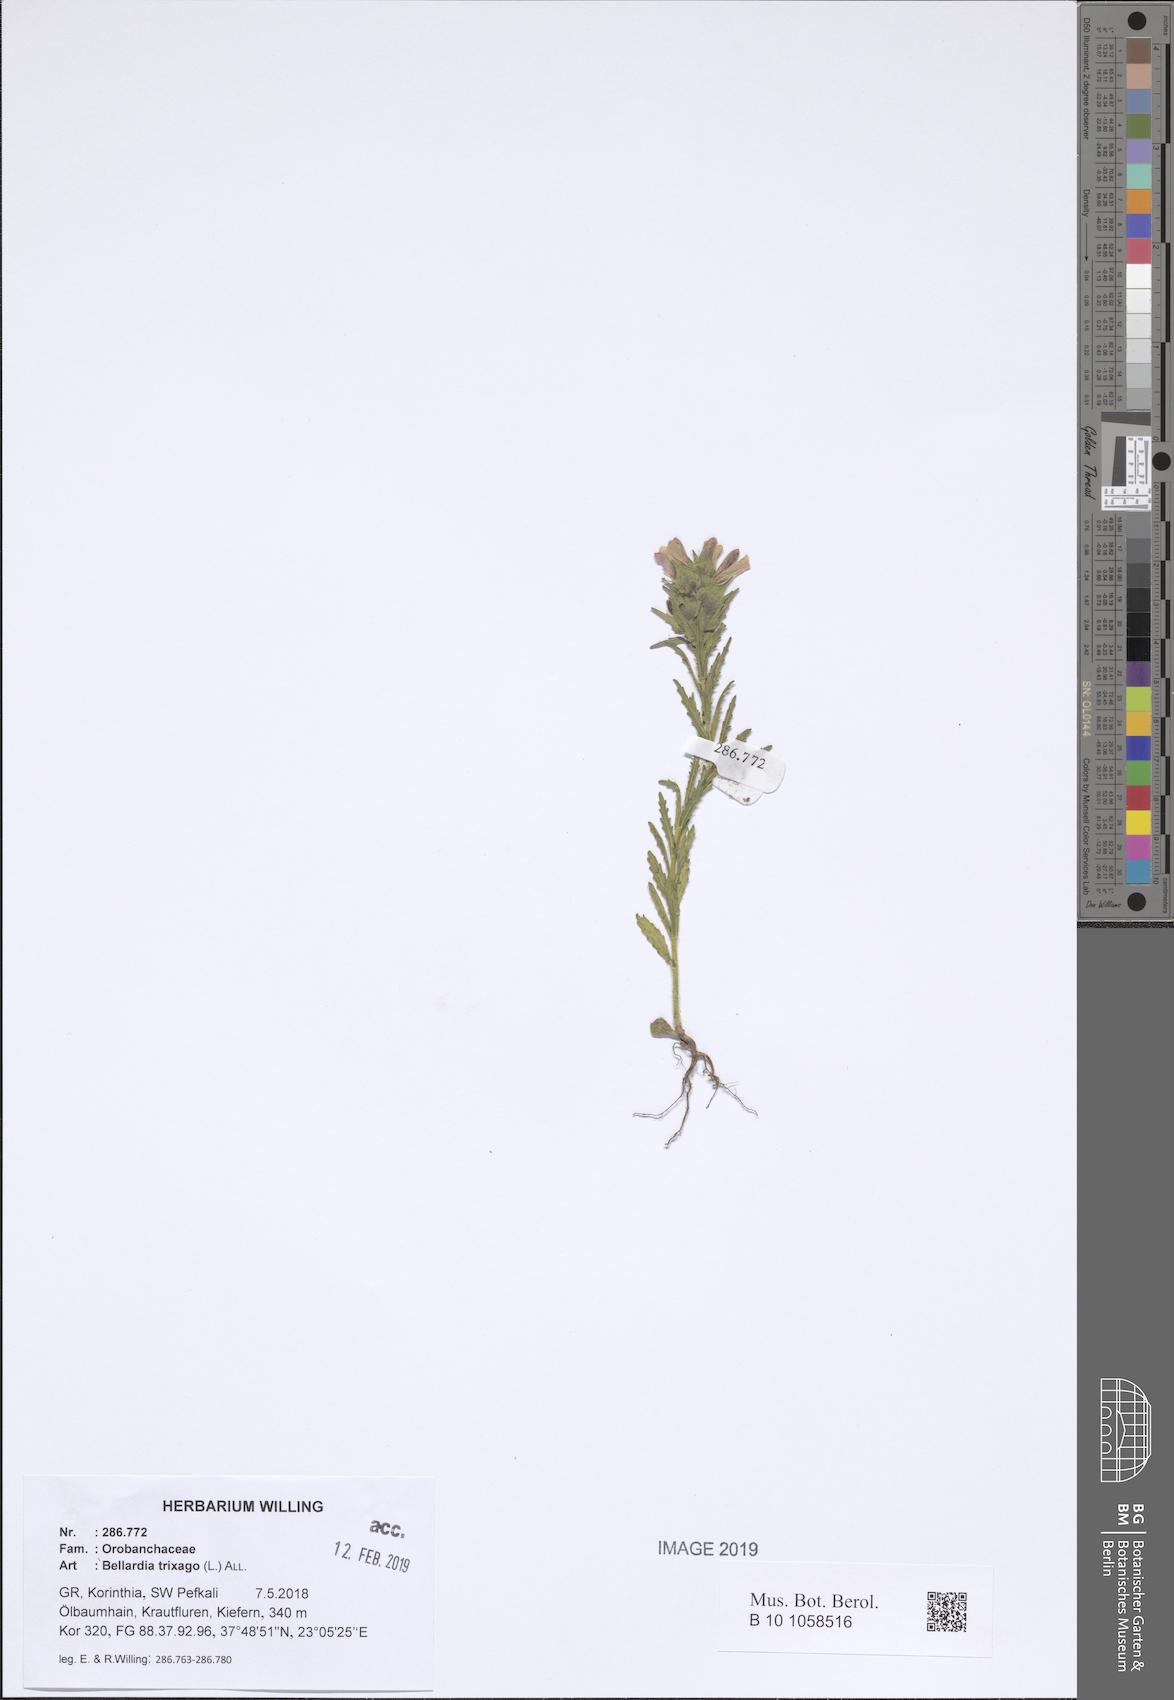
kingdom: Plantae
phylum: Tracheophyta
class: Magnoliopsida
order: Lamiales
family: Orobanchaceae
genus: Bellardia
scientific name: Bellardia trixago
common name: Mediterranean lineseed
